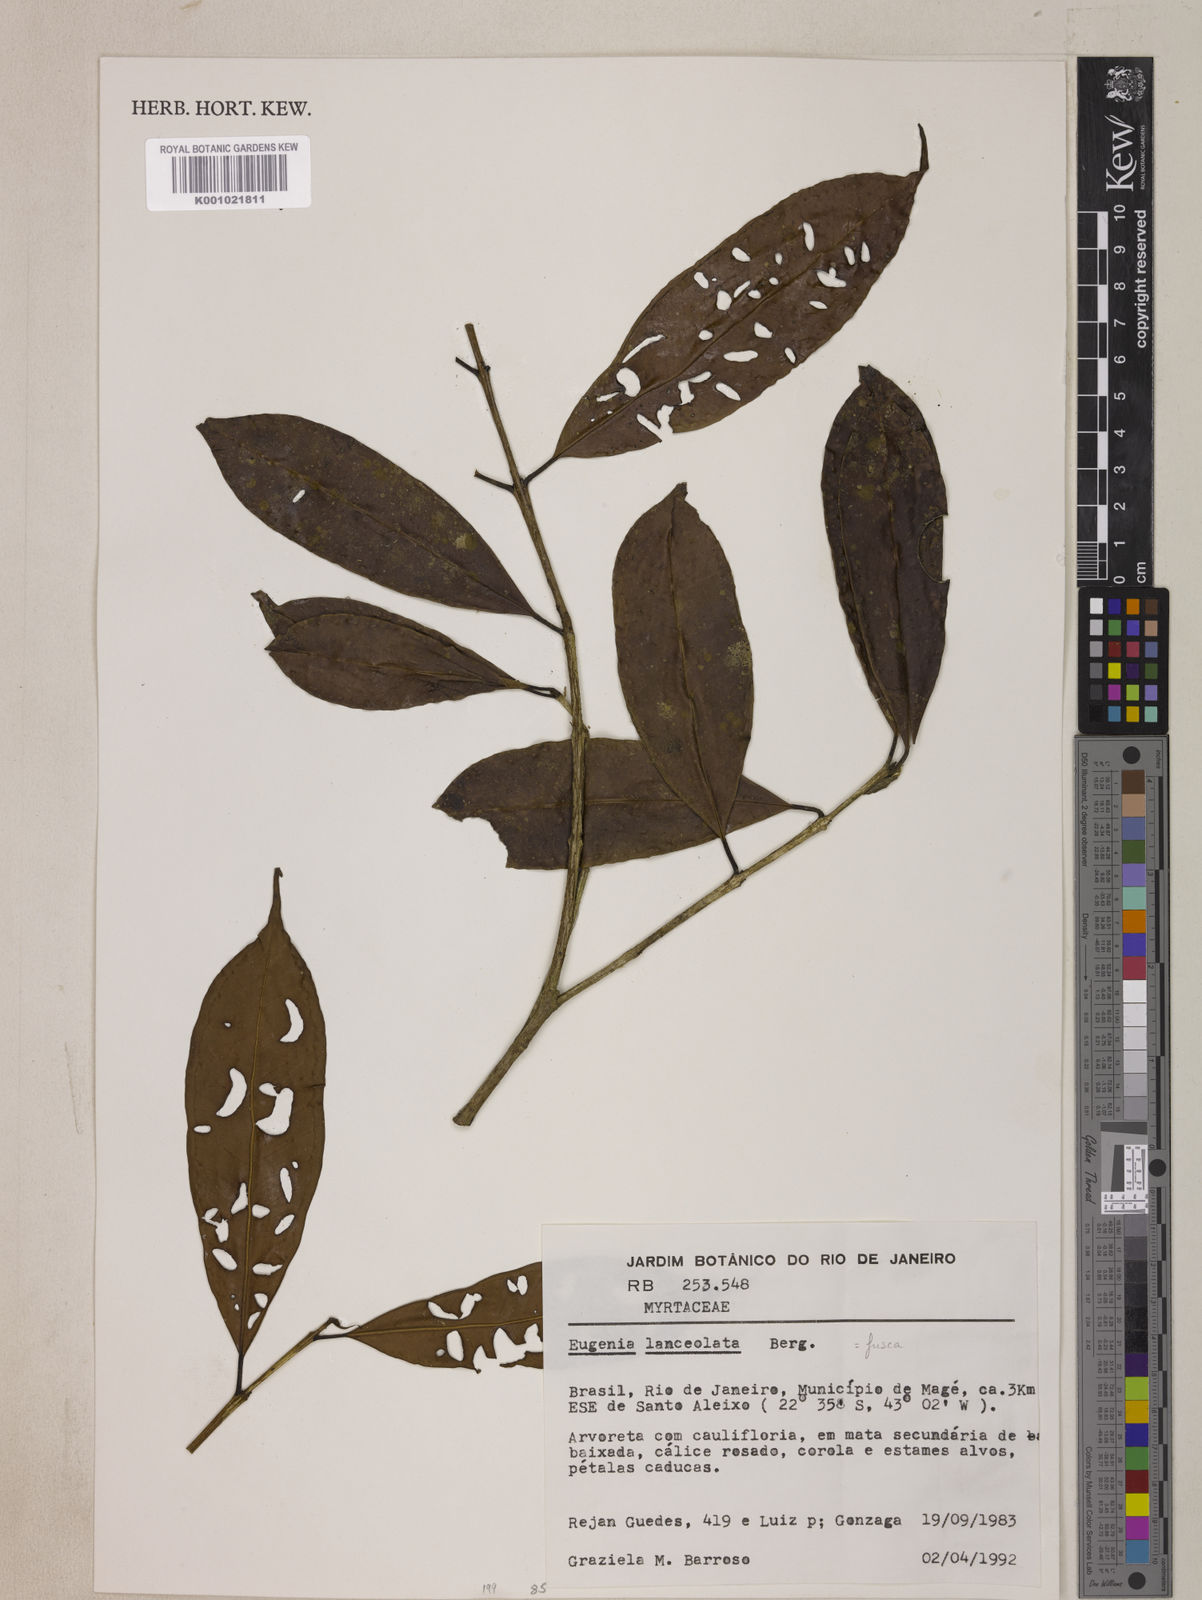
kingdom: Plantae
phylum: Tracheophyta
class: Magnoliopsida
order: Myrtales
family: Myrtaceae
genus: Eugenia
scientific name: Eugenia fusca
